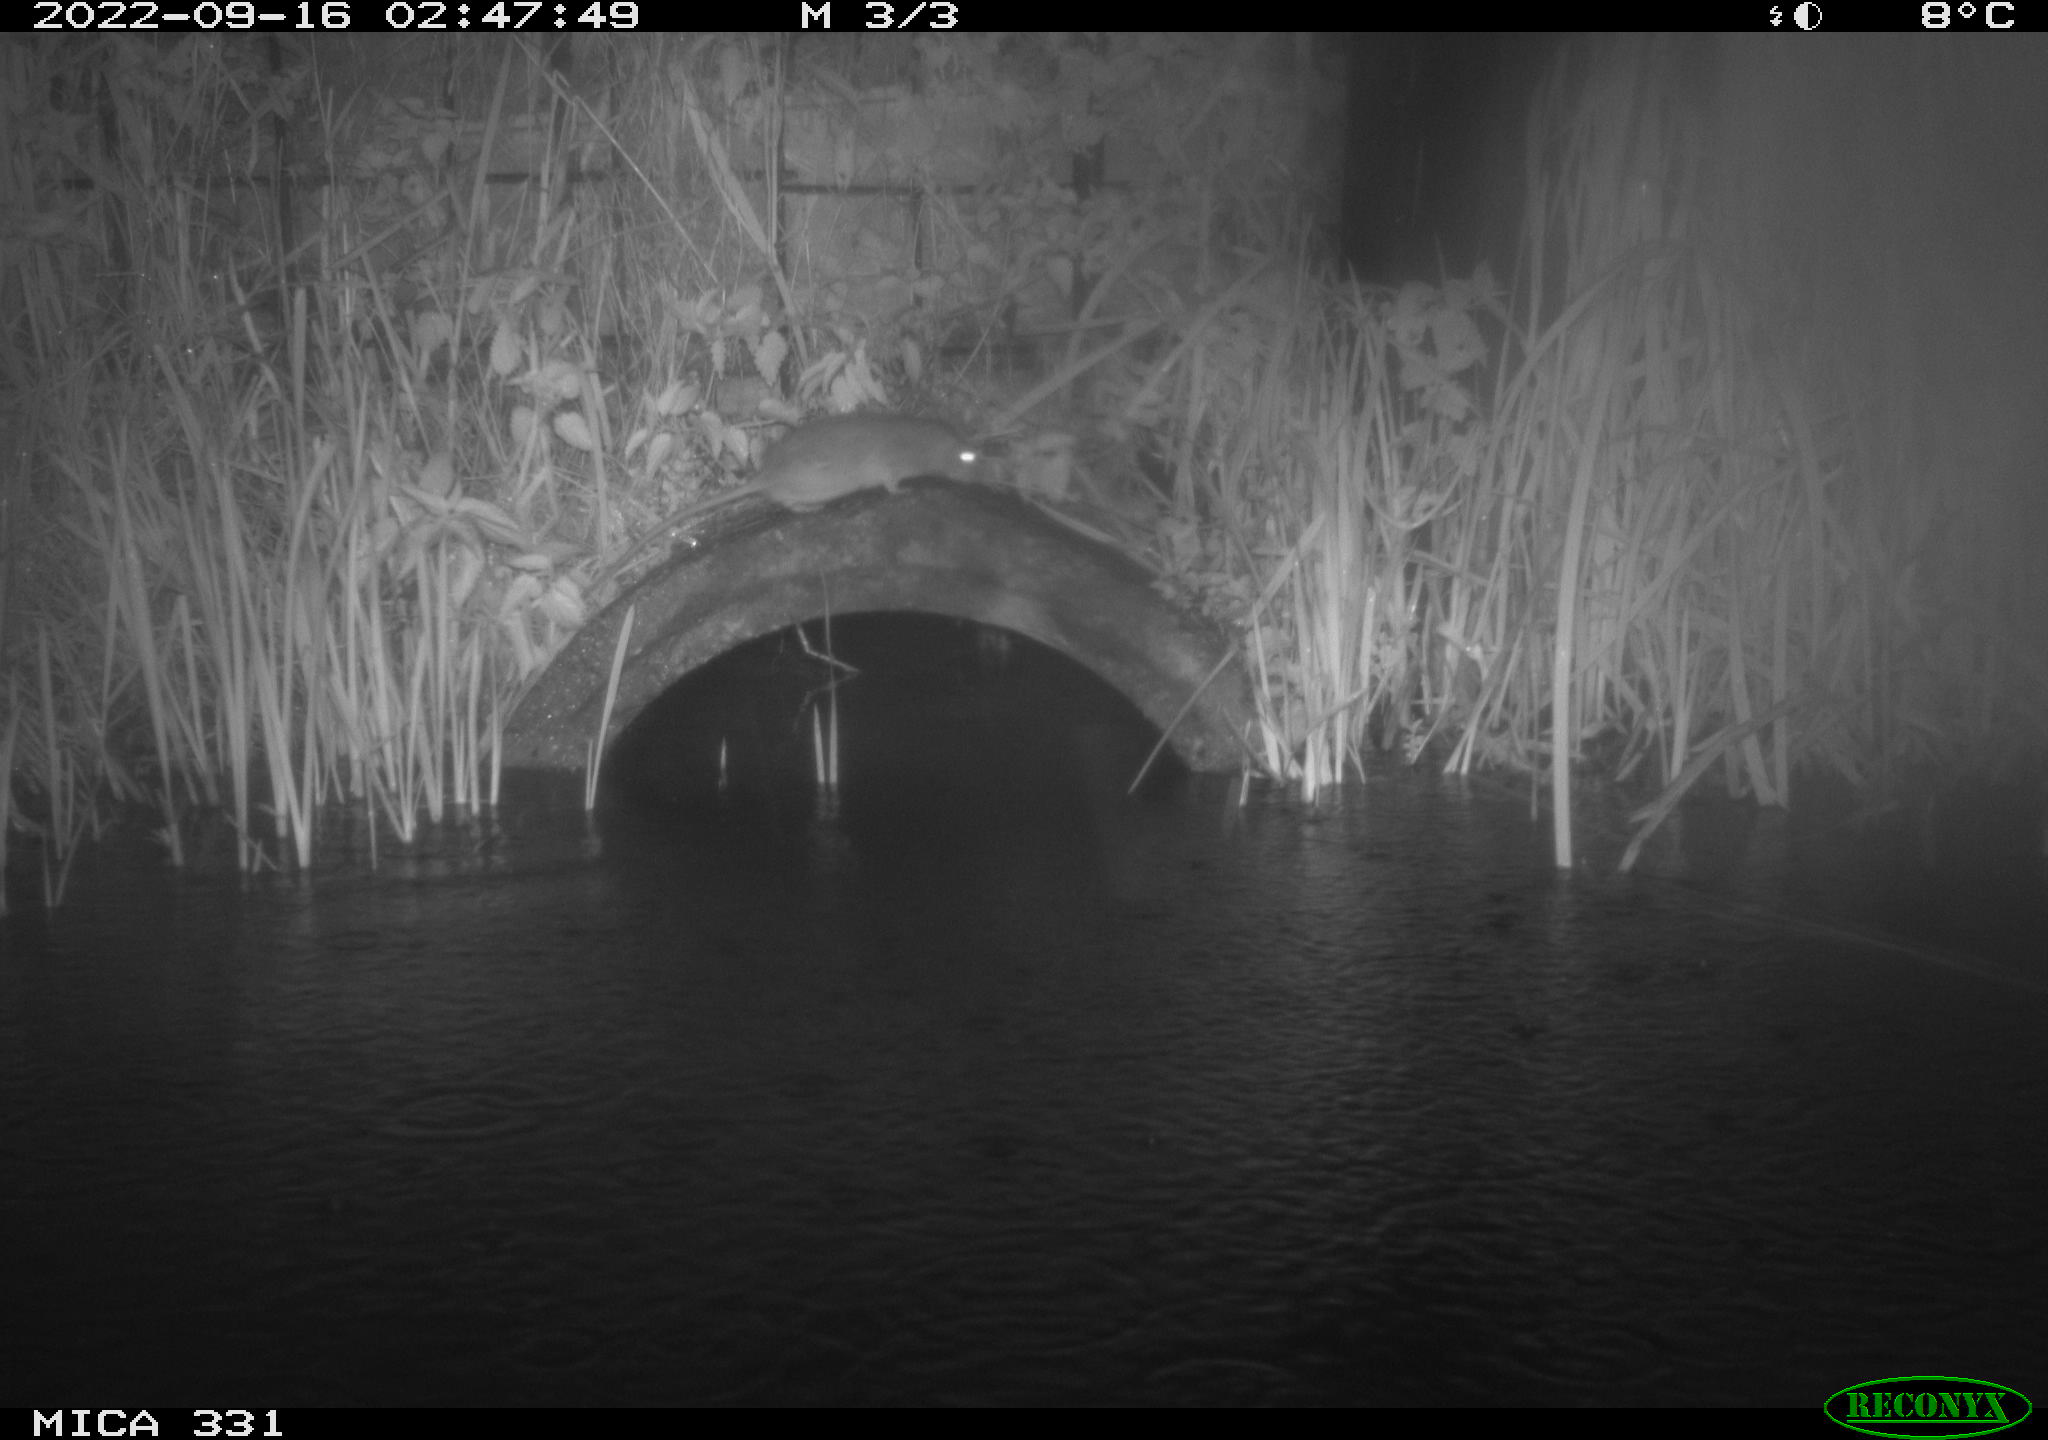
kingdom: Animalia
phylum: Chordata
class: Mammalia
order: Rodentia
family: Muridae
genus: Rattus
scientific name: Rattus norvegicus
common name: Brown rat
